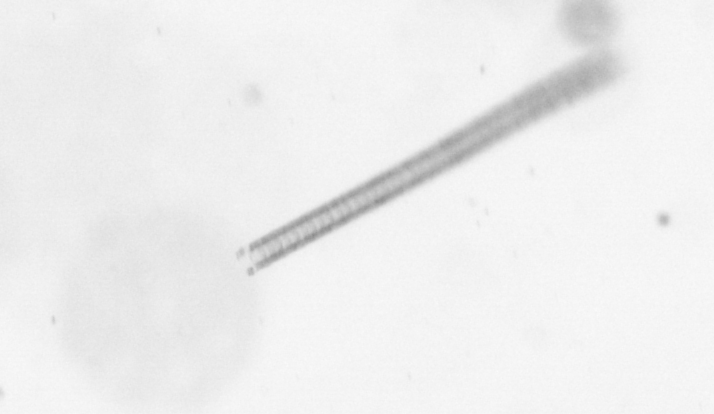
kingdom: Chromista
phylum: Ochrophyta
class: Bacillariophyceae
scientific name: Bacillariophyceae
